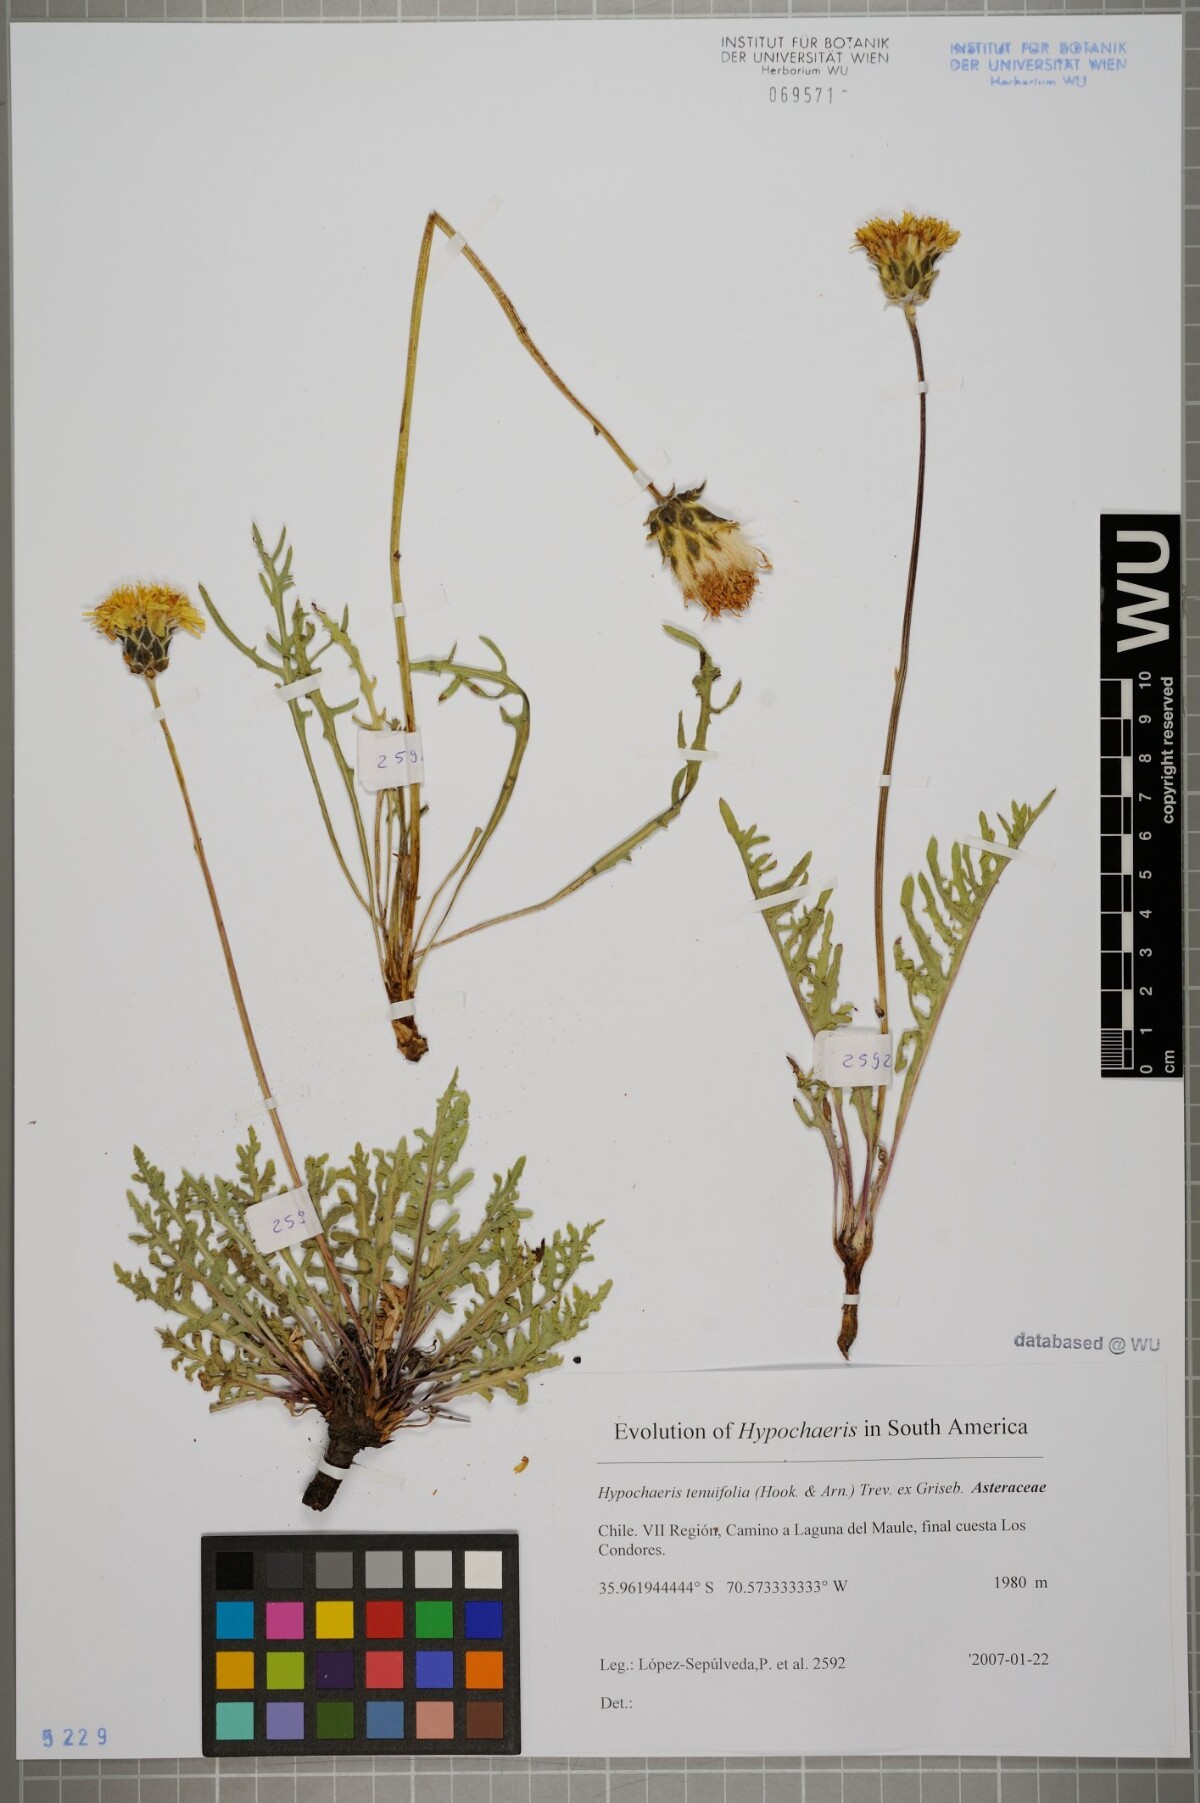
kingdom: Plantae
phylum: Tracheophyta
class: Magnoliopsida
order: Asterales
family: Asteraceae
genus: Hypochaeris
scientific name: Hypochaeris tenuifolia
